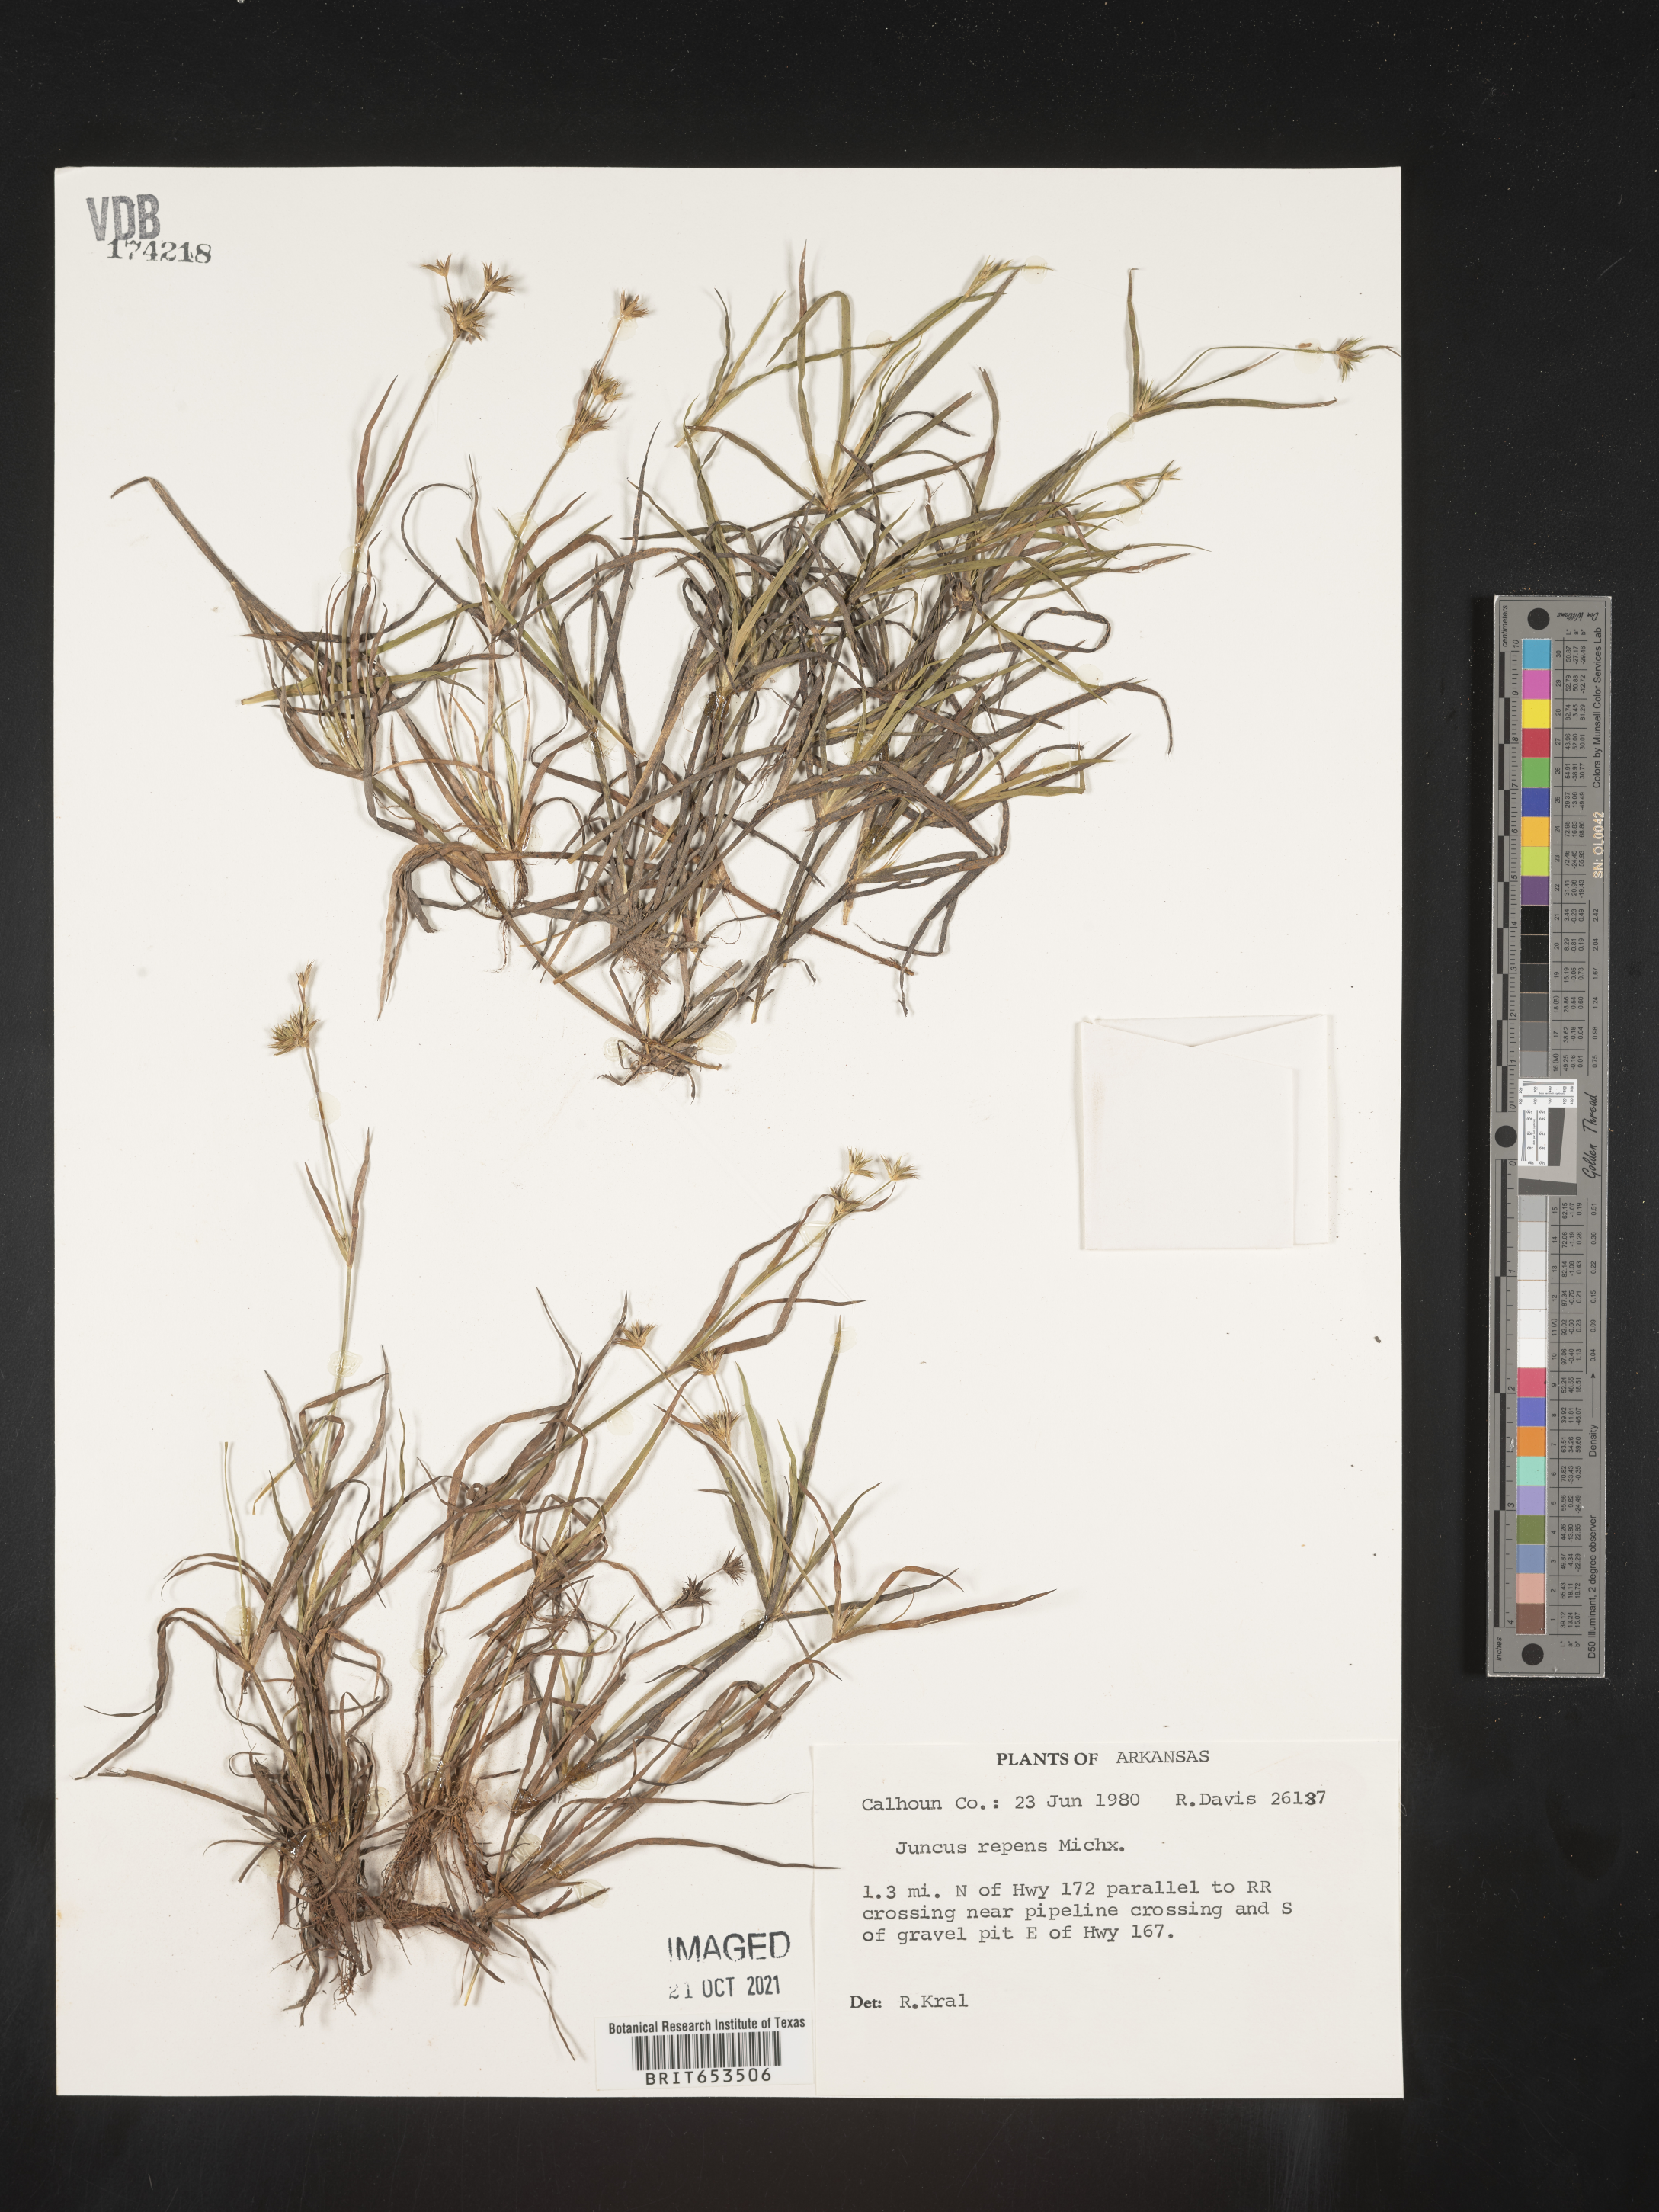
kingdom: Plantae
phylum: Tracheophyta
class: Liliopsida
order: Poales
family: Juncaceae
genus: Juncus
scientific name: Juncus repens
